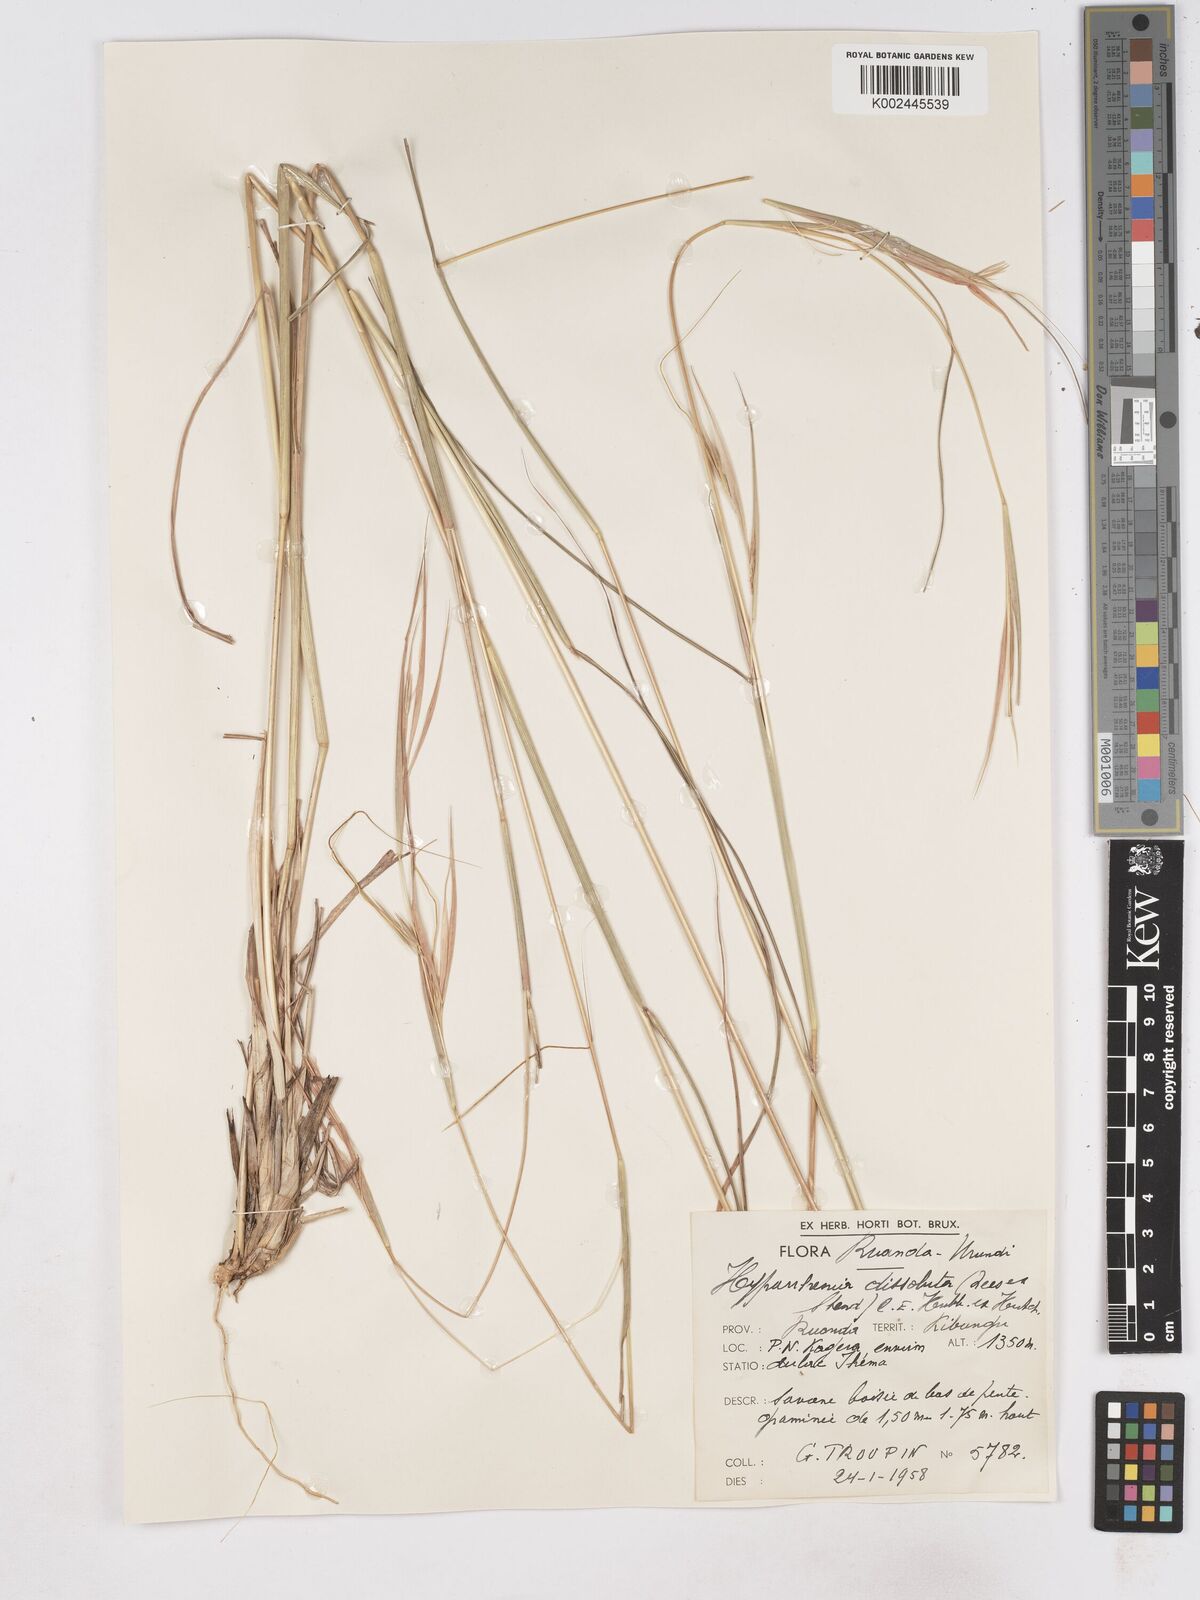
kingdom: Plantae
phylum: Tracheophyta
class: Liliopsida
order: Poales
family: Poaceae
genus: Hyperthelia
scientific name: Hyperthelia dissoluta
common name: Yellow thatching grass
